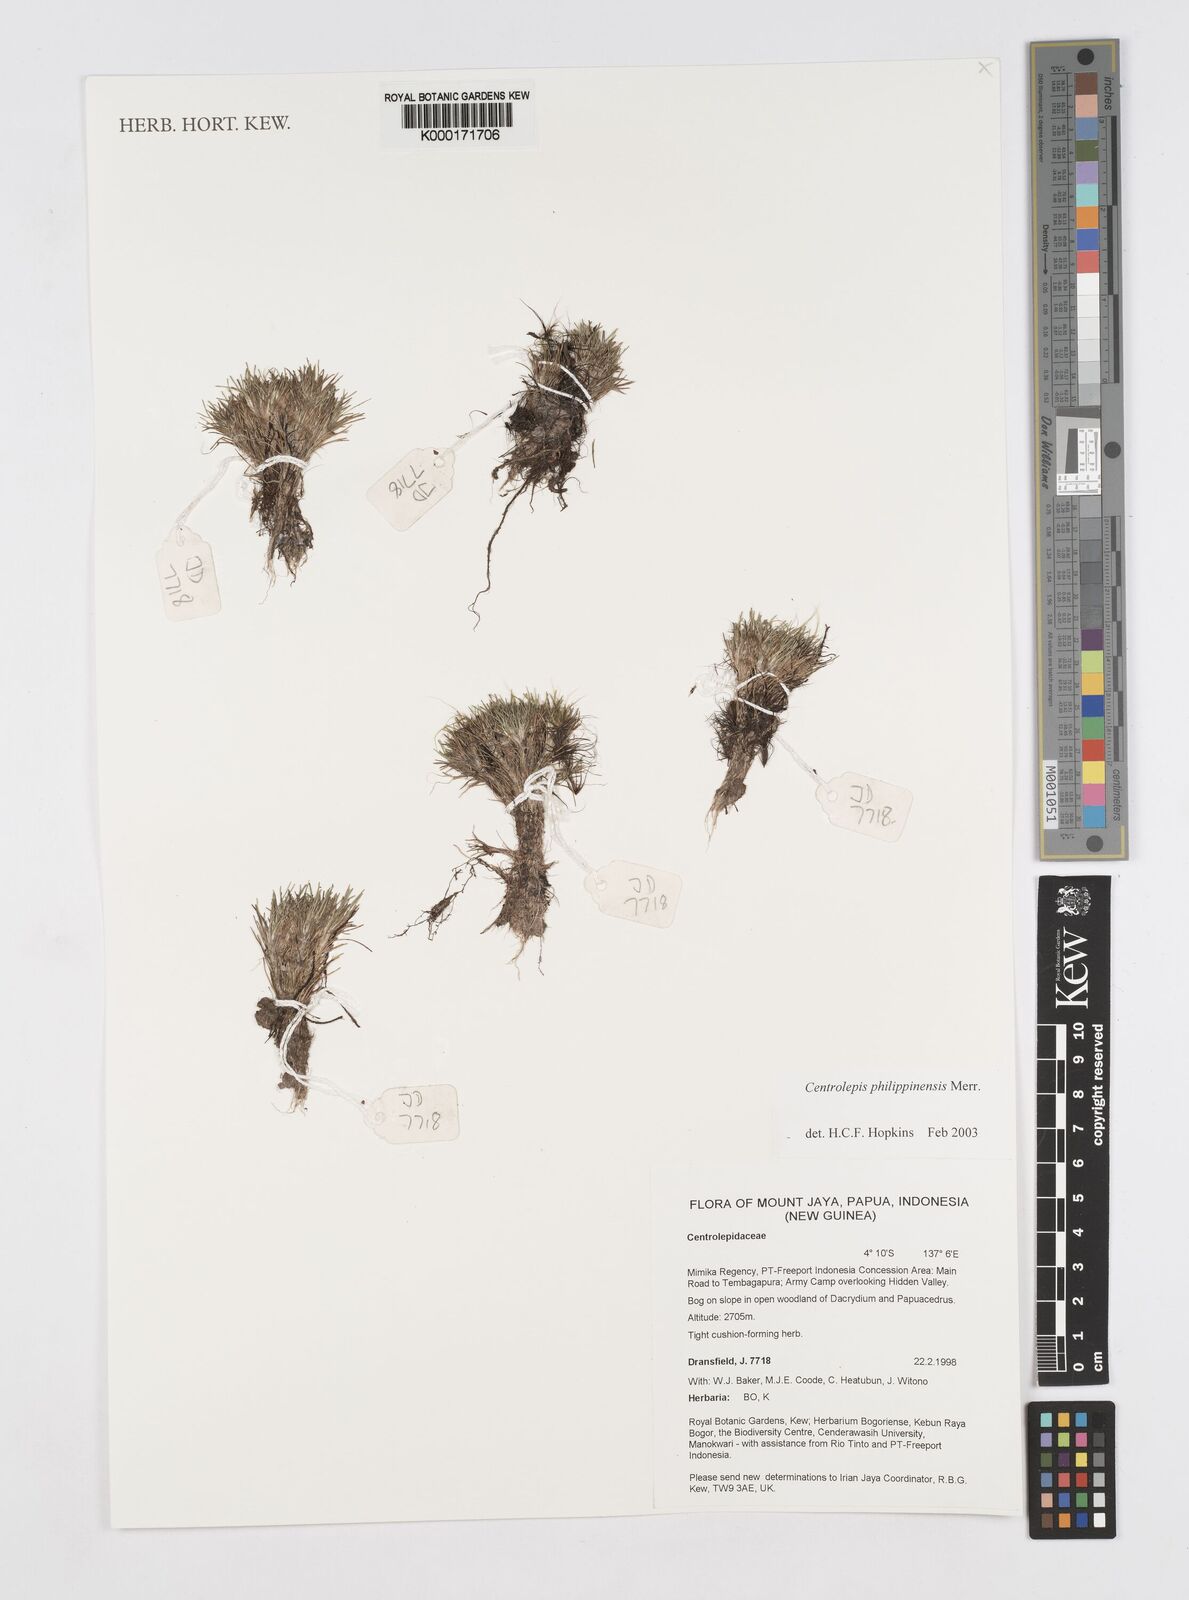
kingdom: Plantae
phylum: Tracheophyta
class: Liliopsida
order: Poales
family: Restionaceae
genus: Centrolepis
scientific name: Centrolepis philippinensis
